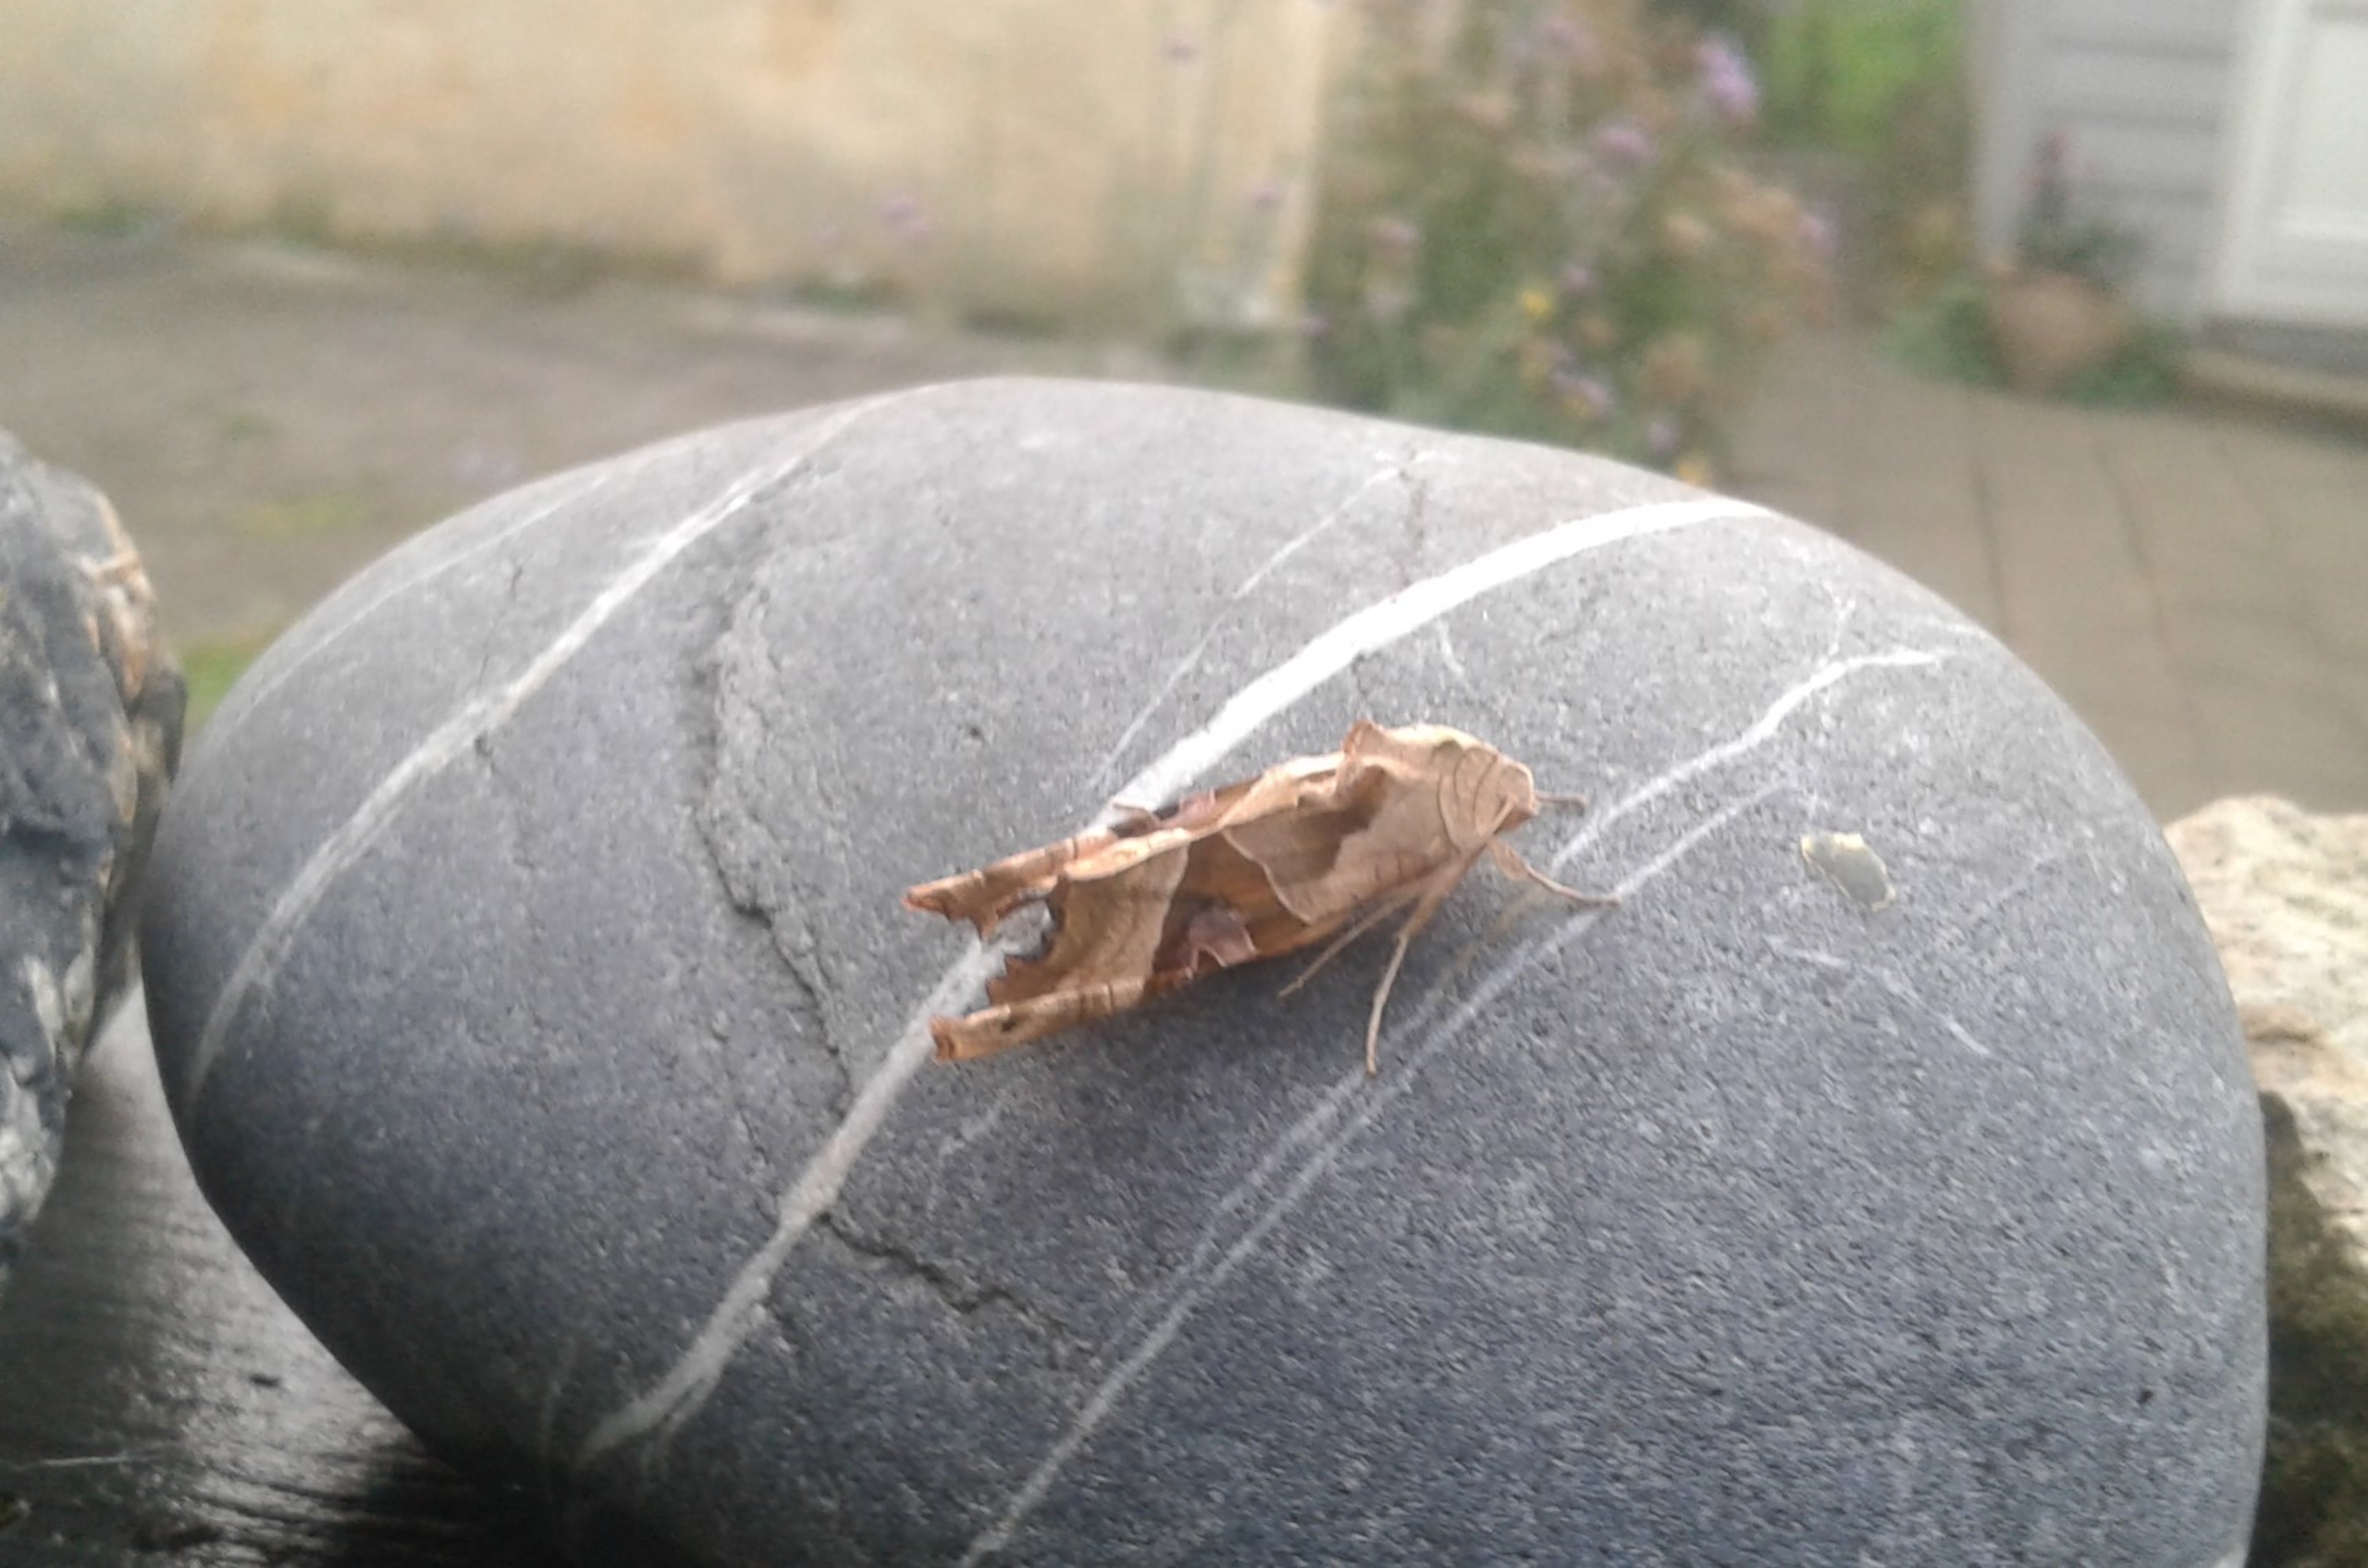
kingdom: Animalia
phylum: Arthropoda
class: Insecta
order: Lepidoptera
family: Noctuidae
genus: Phlogophora
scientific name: Phlogophora meticulosa
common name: Agatugle
